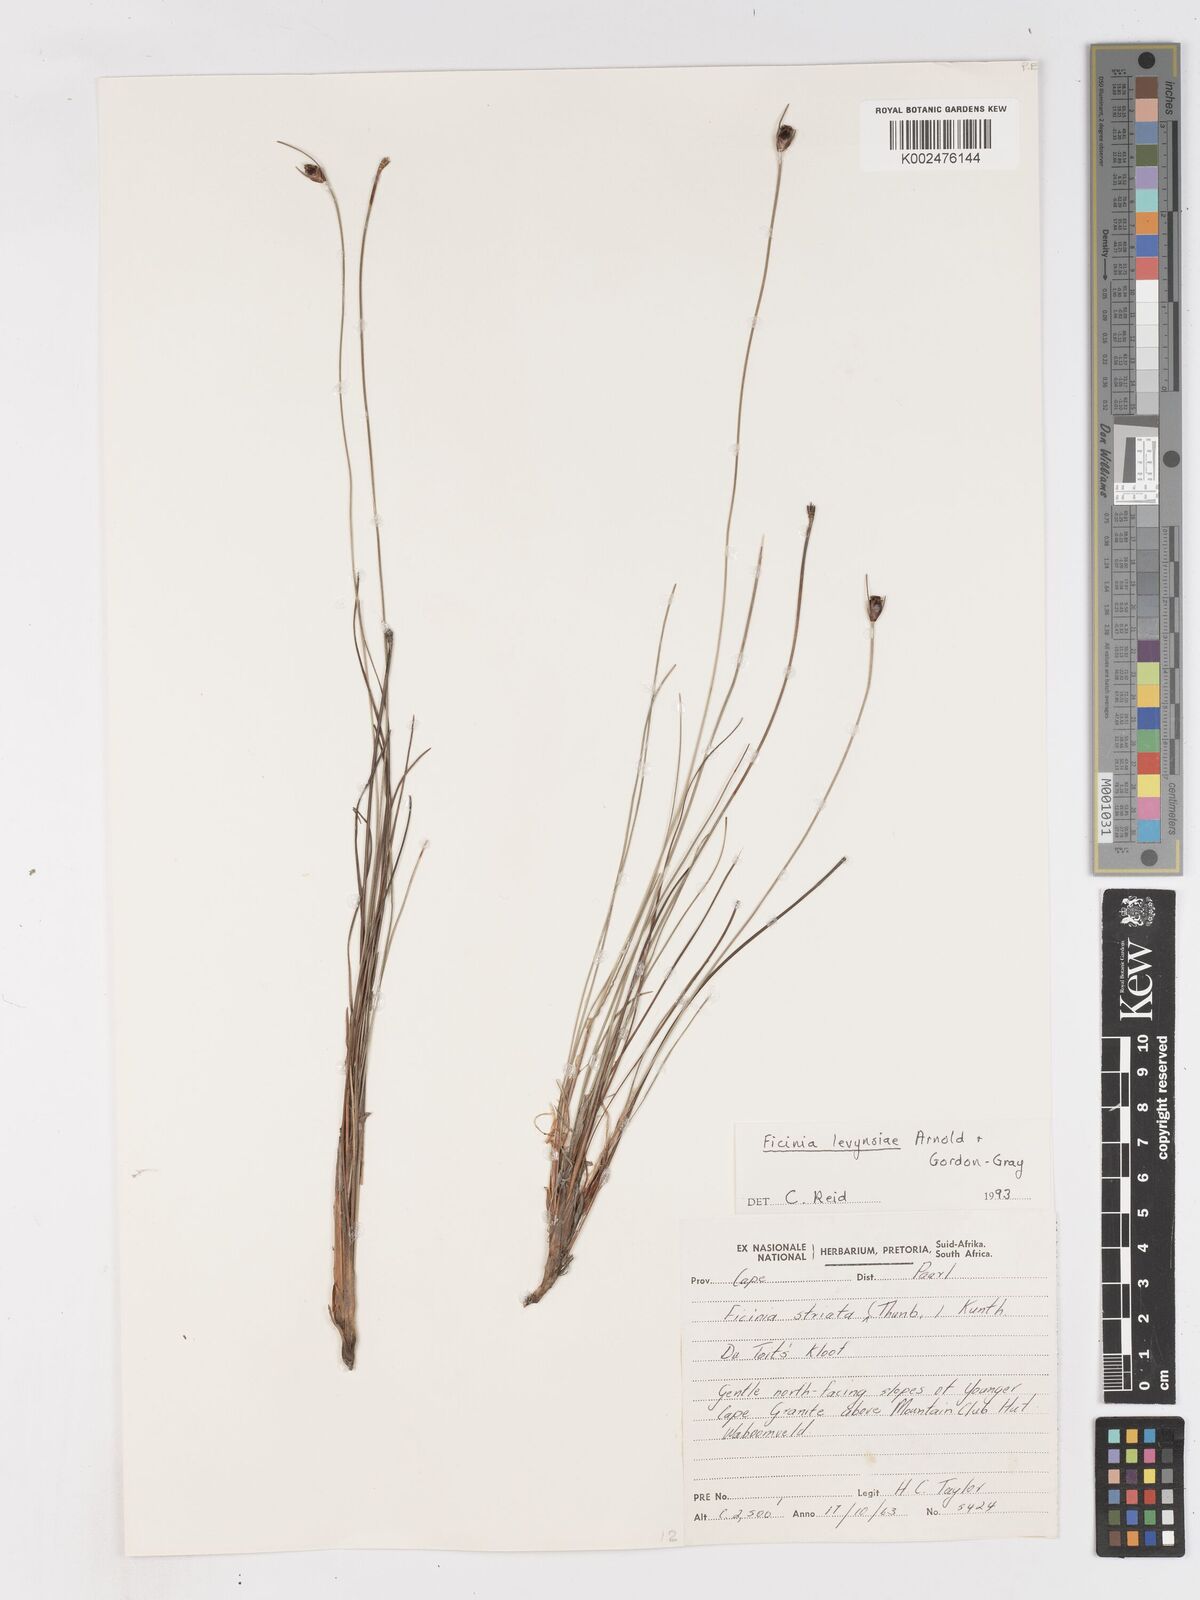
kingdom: Plantae
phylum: Tracheophyta
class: Liliopsida
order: Poales
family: Cyperaceae
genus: Ficinia
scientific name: Ficinia levynsiae
